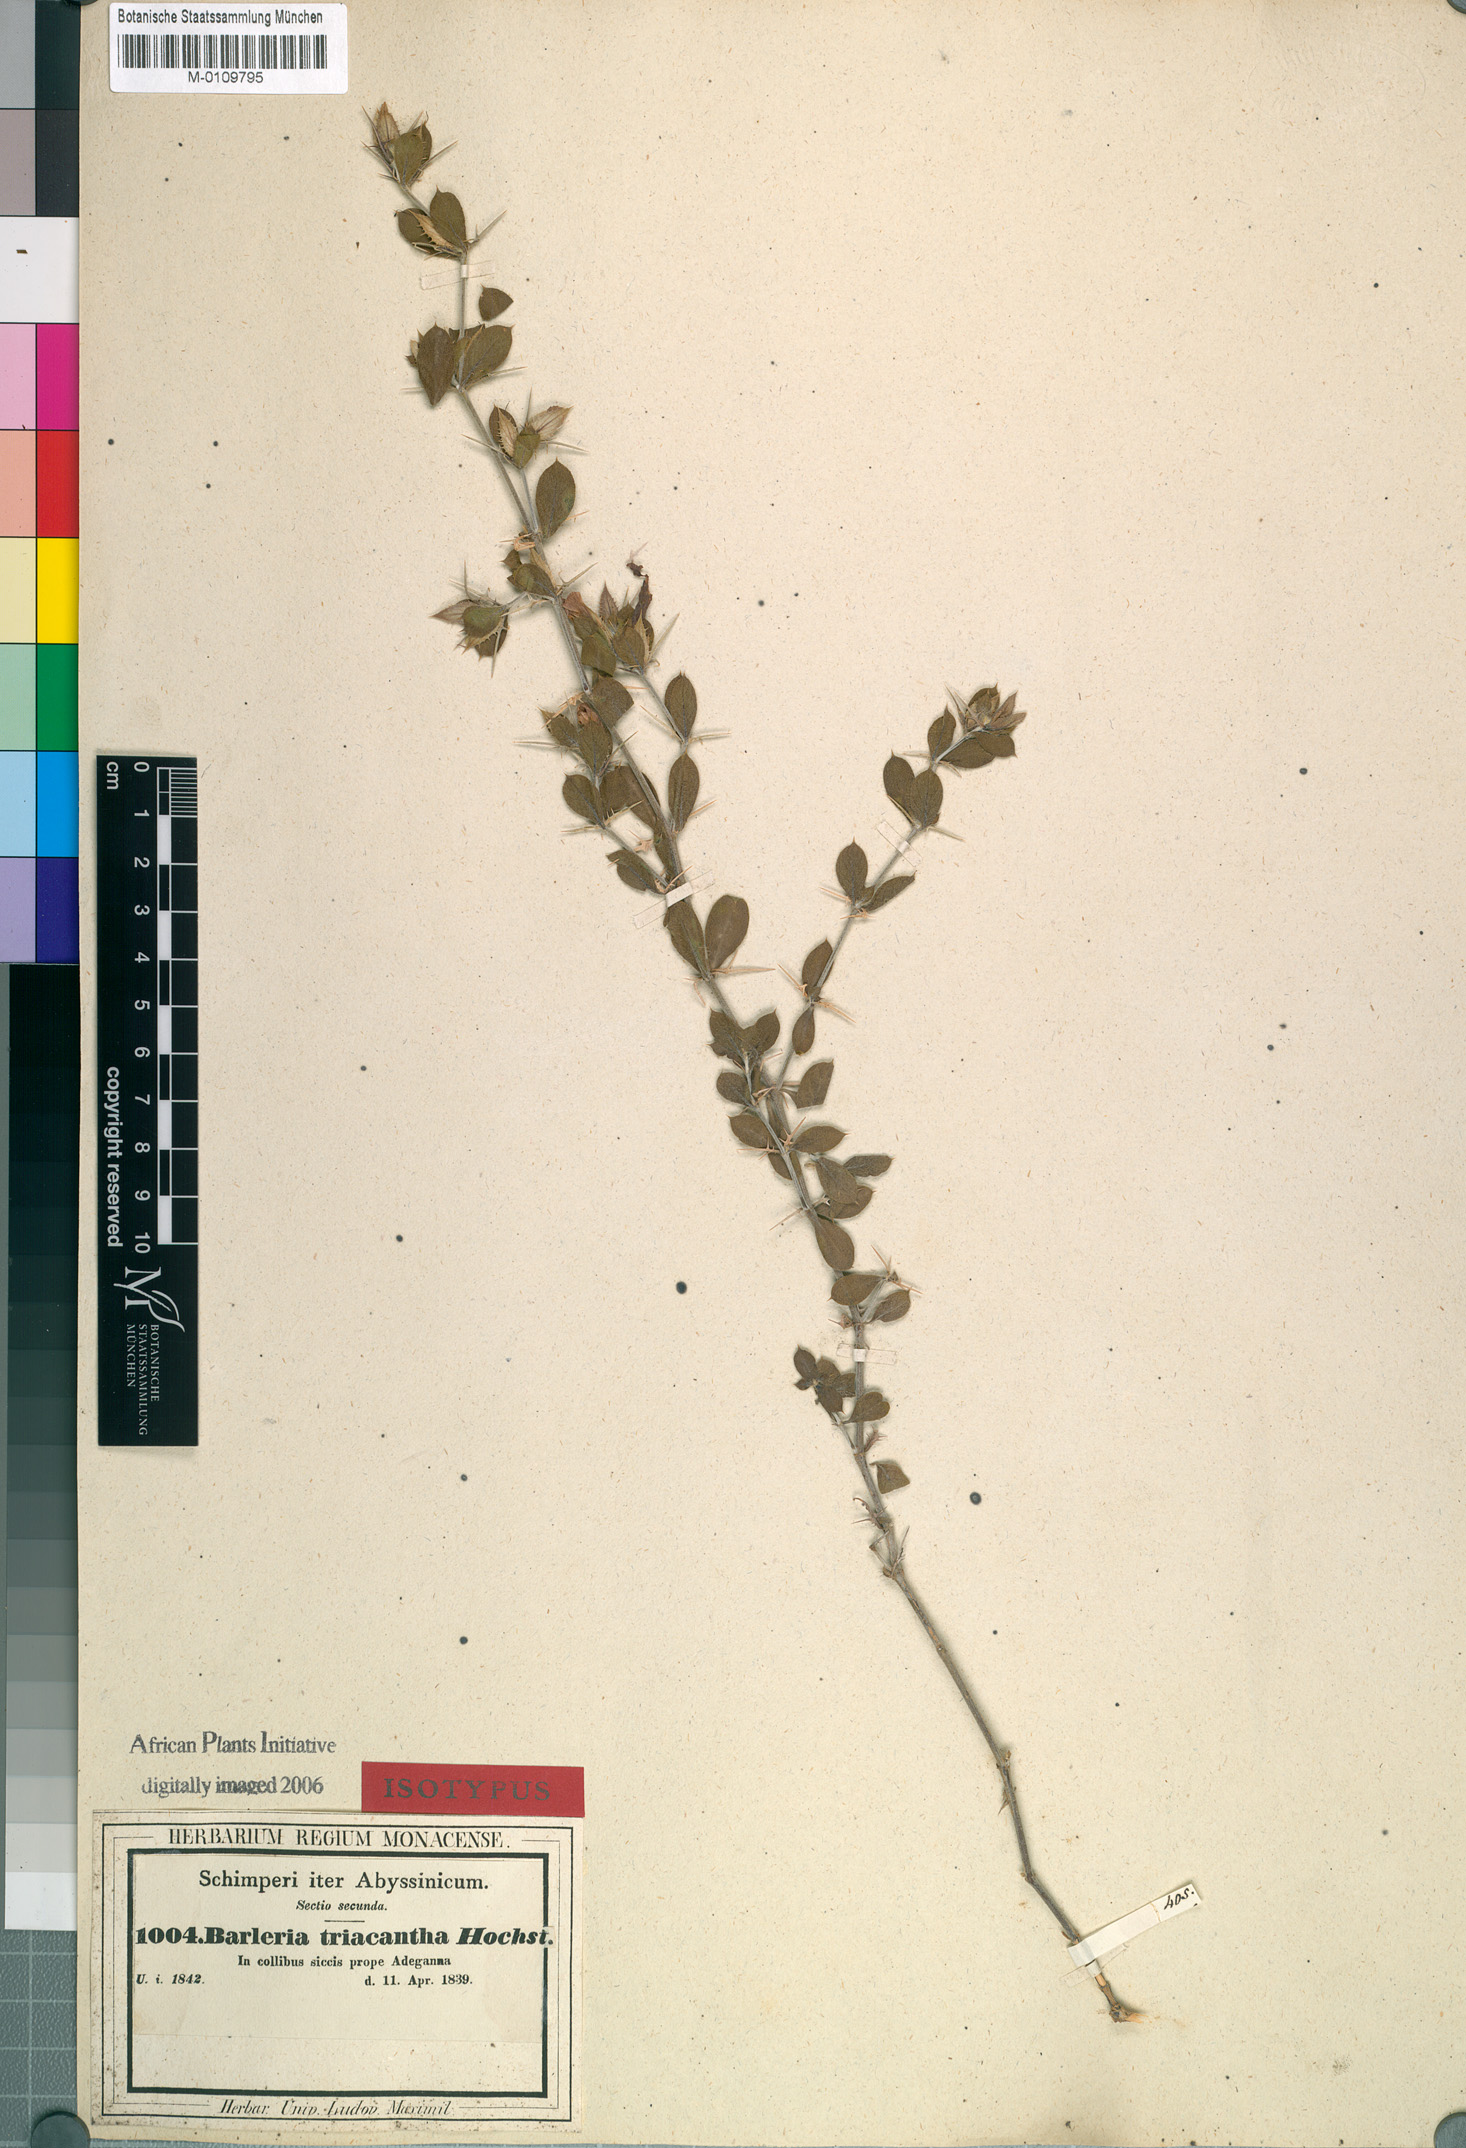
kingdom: Plantae
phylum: Tracheophyta
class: Magnoliopsida
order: Lamiales
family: Acanthaceae
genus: Barleria
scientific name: Barleria lanceata
